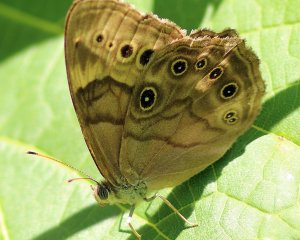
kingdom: Animalia
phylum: Arthropoda
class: Insecta
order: Lepidoptera
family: Nymphalidae
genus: Lethe
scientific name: Lethe anthedon
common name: Northern Pearly-Eye
